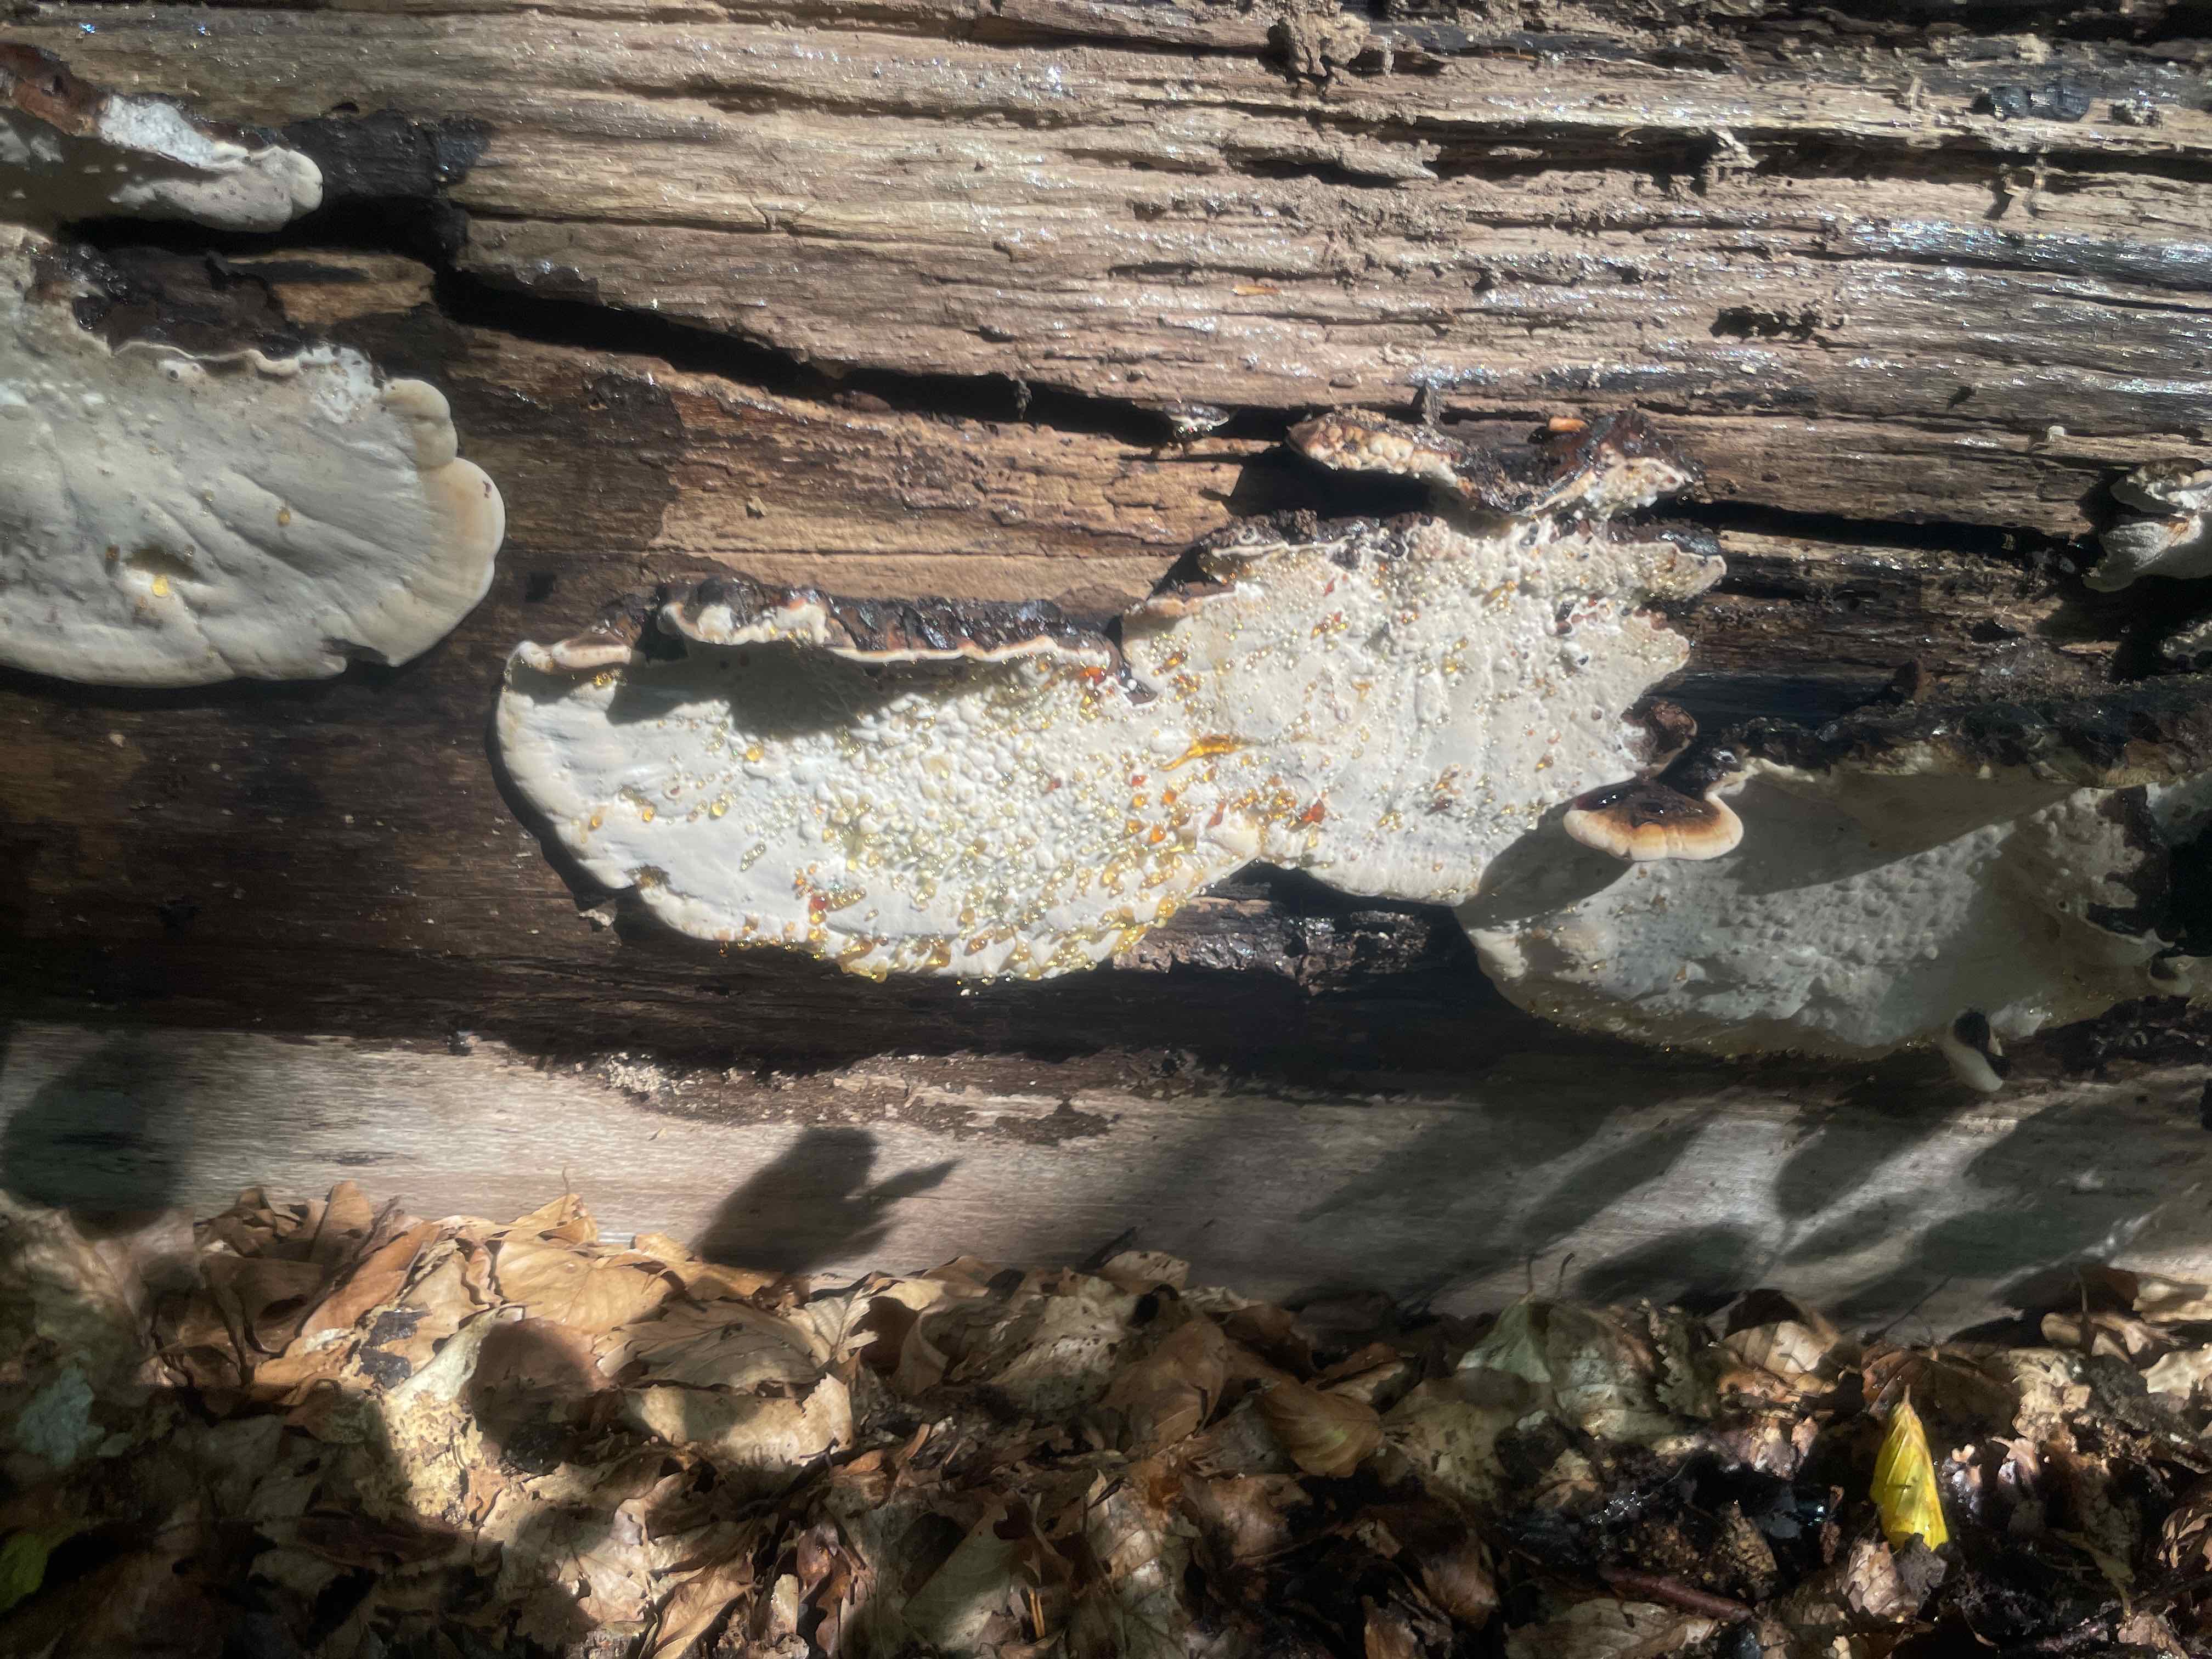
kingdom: Fungi
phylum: Basidiomycota
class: Agaricomycetes
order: Polyporales
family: Ischnodermataceae
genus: Ischnoderma
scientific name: Ischnoderma resinosum
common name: løv-tjæreporesvamp
